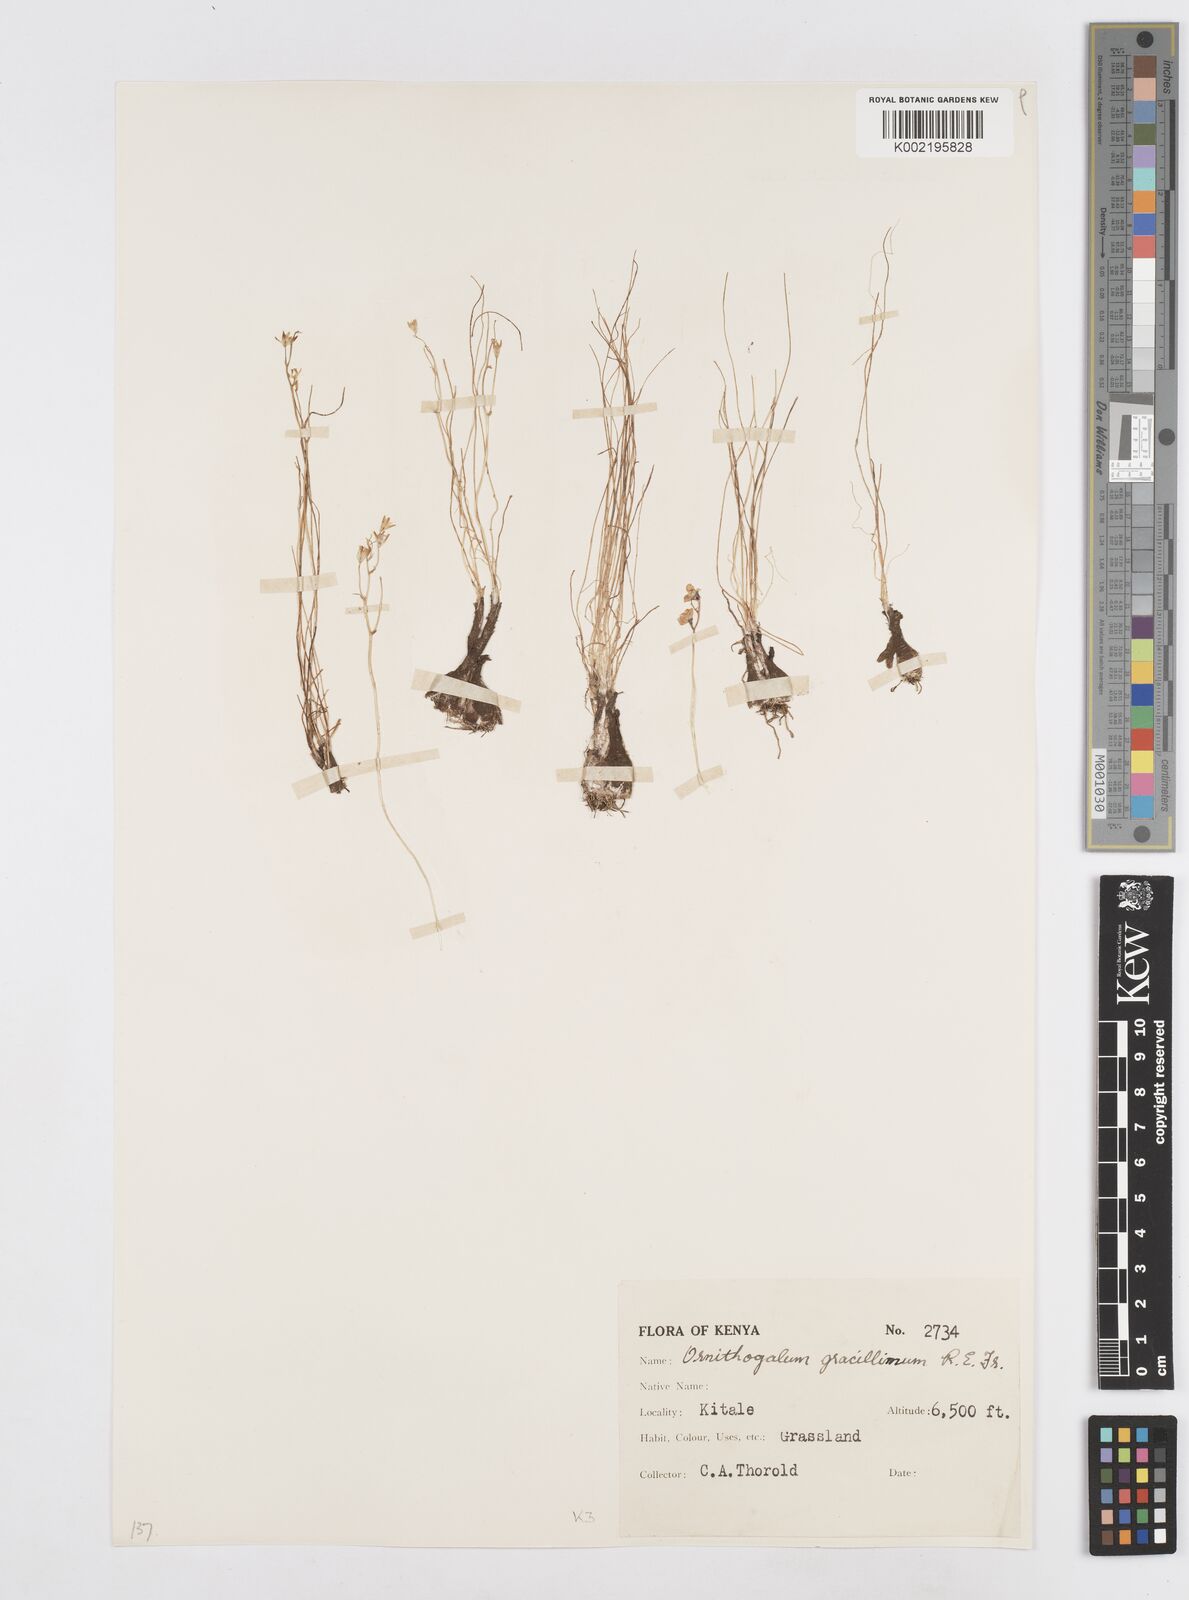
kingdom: Plantae
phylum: Tracheophyta
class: Liliopsida
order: Asparagales
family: Asparagaceae
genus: Ornithogalum
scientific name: Ornithogalum gracillimum
